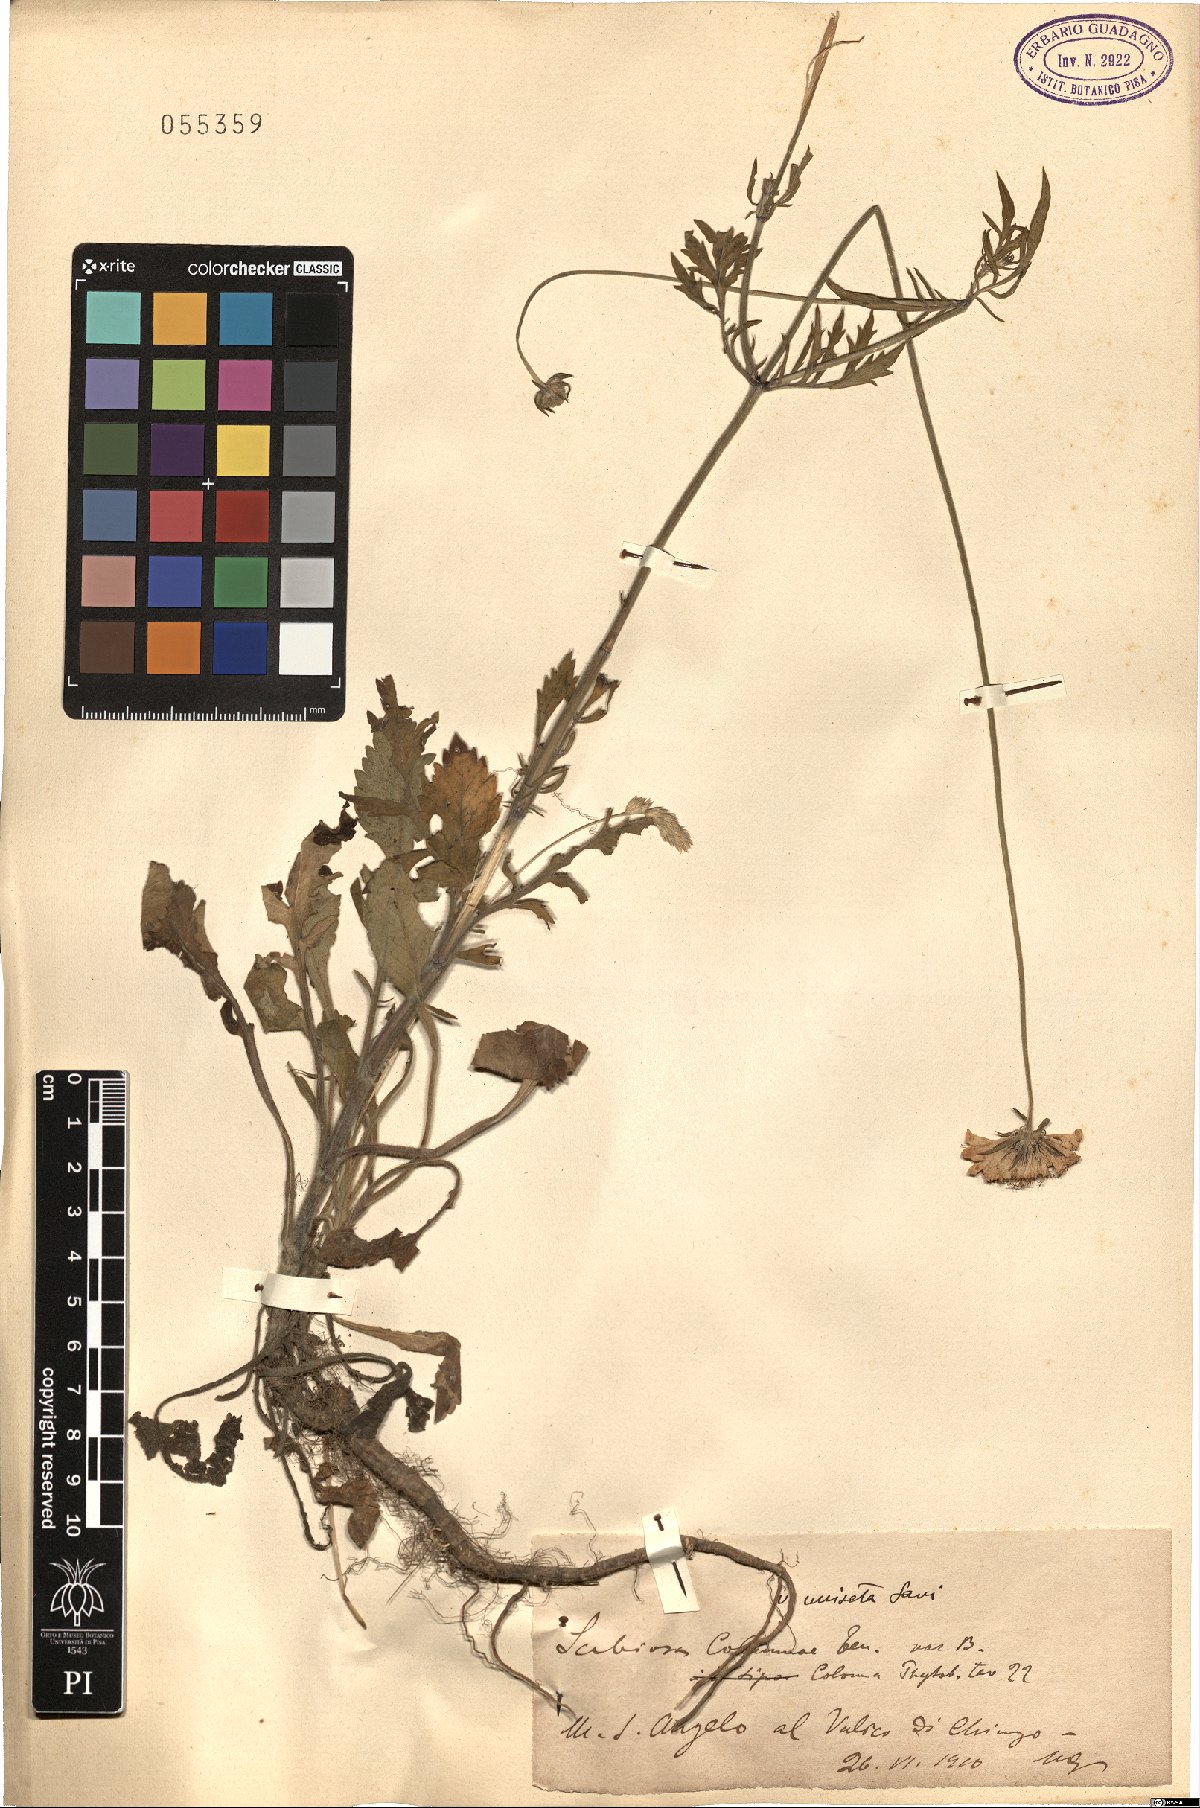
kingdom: Plantae
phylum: Tracheophyta
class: Magnoliopsida
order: Dipsacales
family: Caprifoliaceae
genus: Scabiosa
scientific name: Scabiosa columbaria
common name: Small scabious
